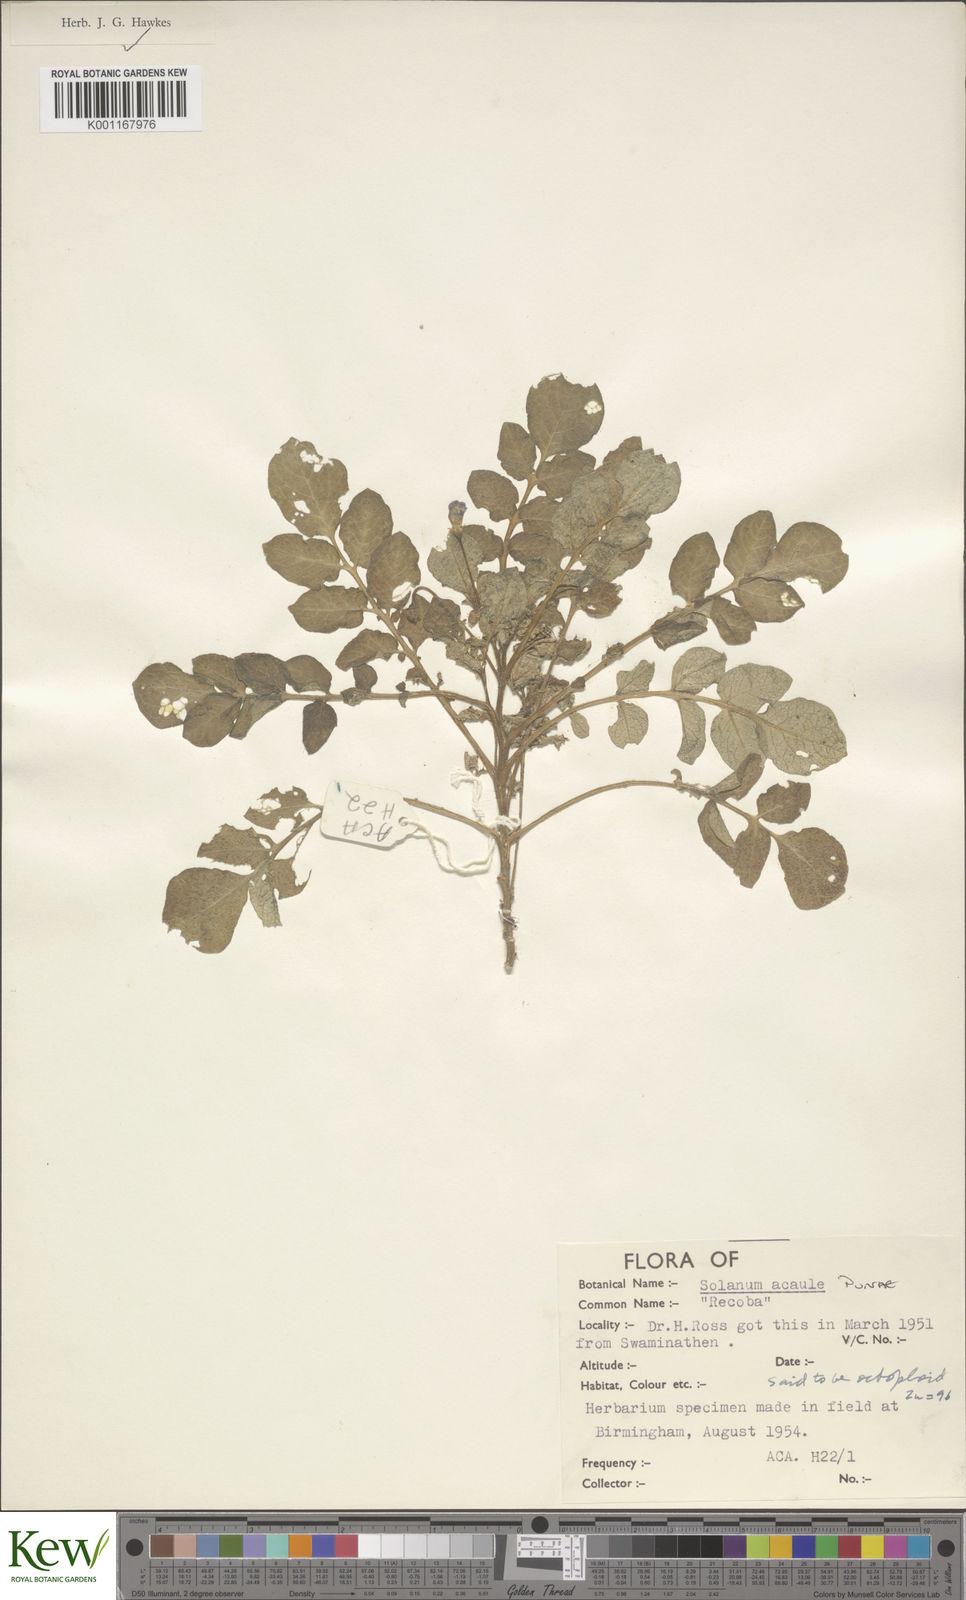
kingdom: Plantae
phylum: Tracheophyta
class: Magnoliopsida
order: Solanales
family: Solanaceae
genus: Solanum
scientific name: Solanum acaule
